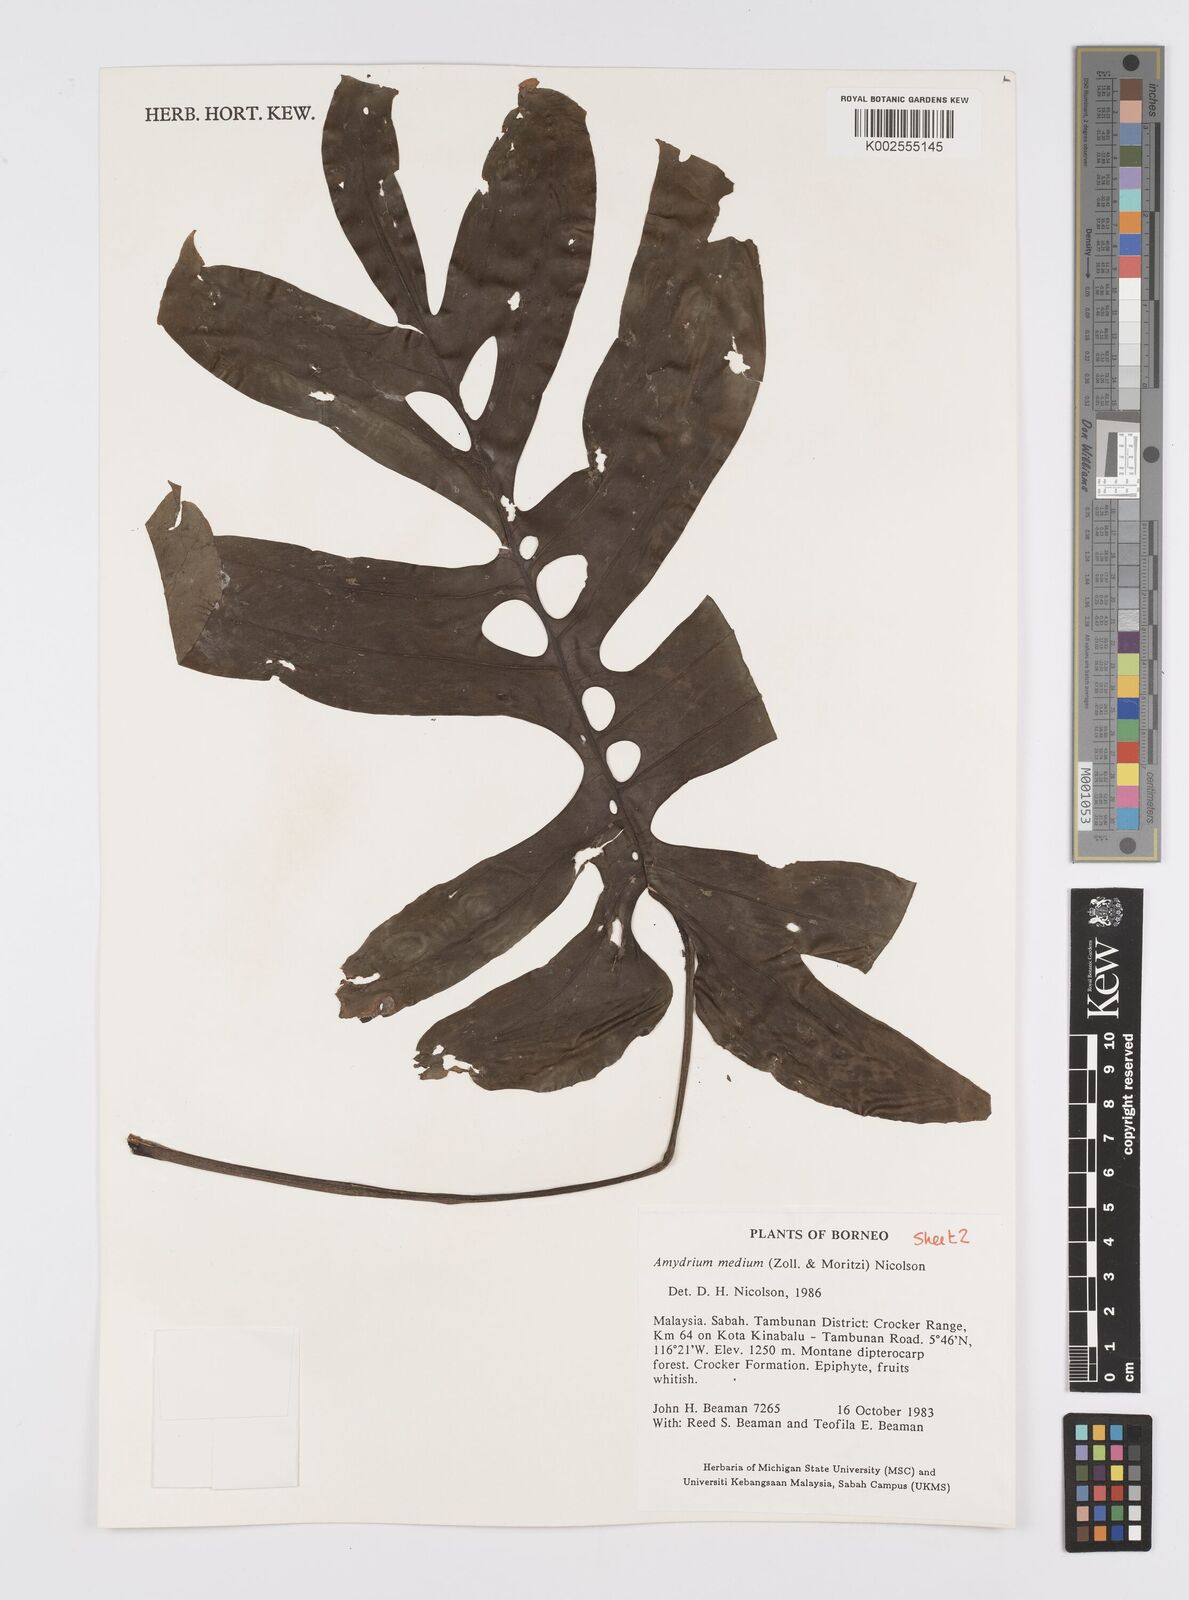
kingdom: Plantae
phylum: Tracheophyta
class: Liliopsida
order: Alismatales
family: Araceae
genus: Amydrium
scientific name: Amydrium medium
